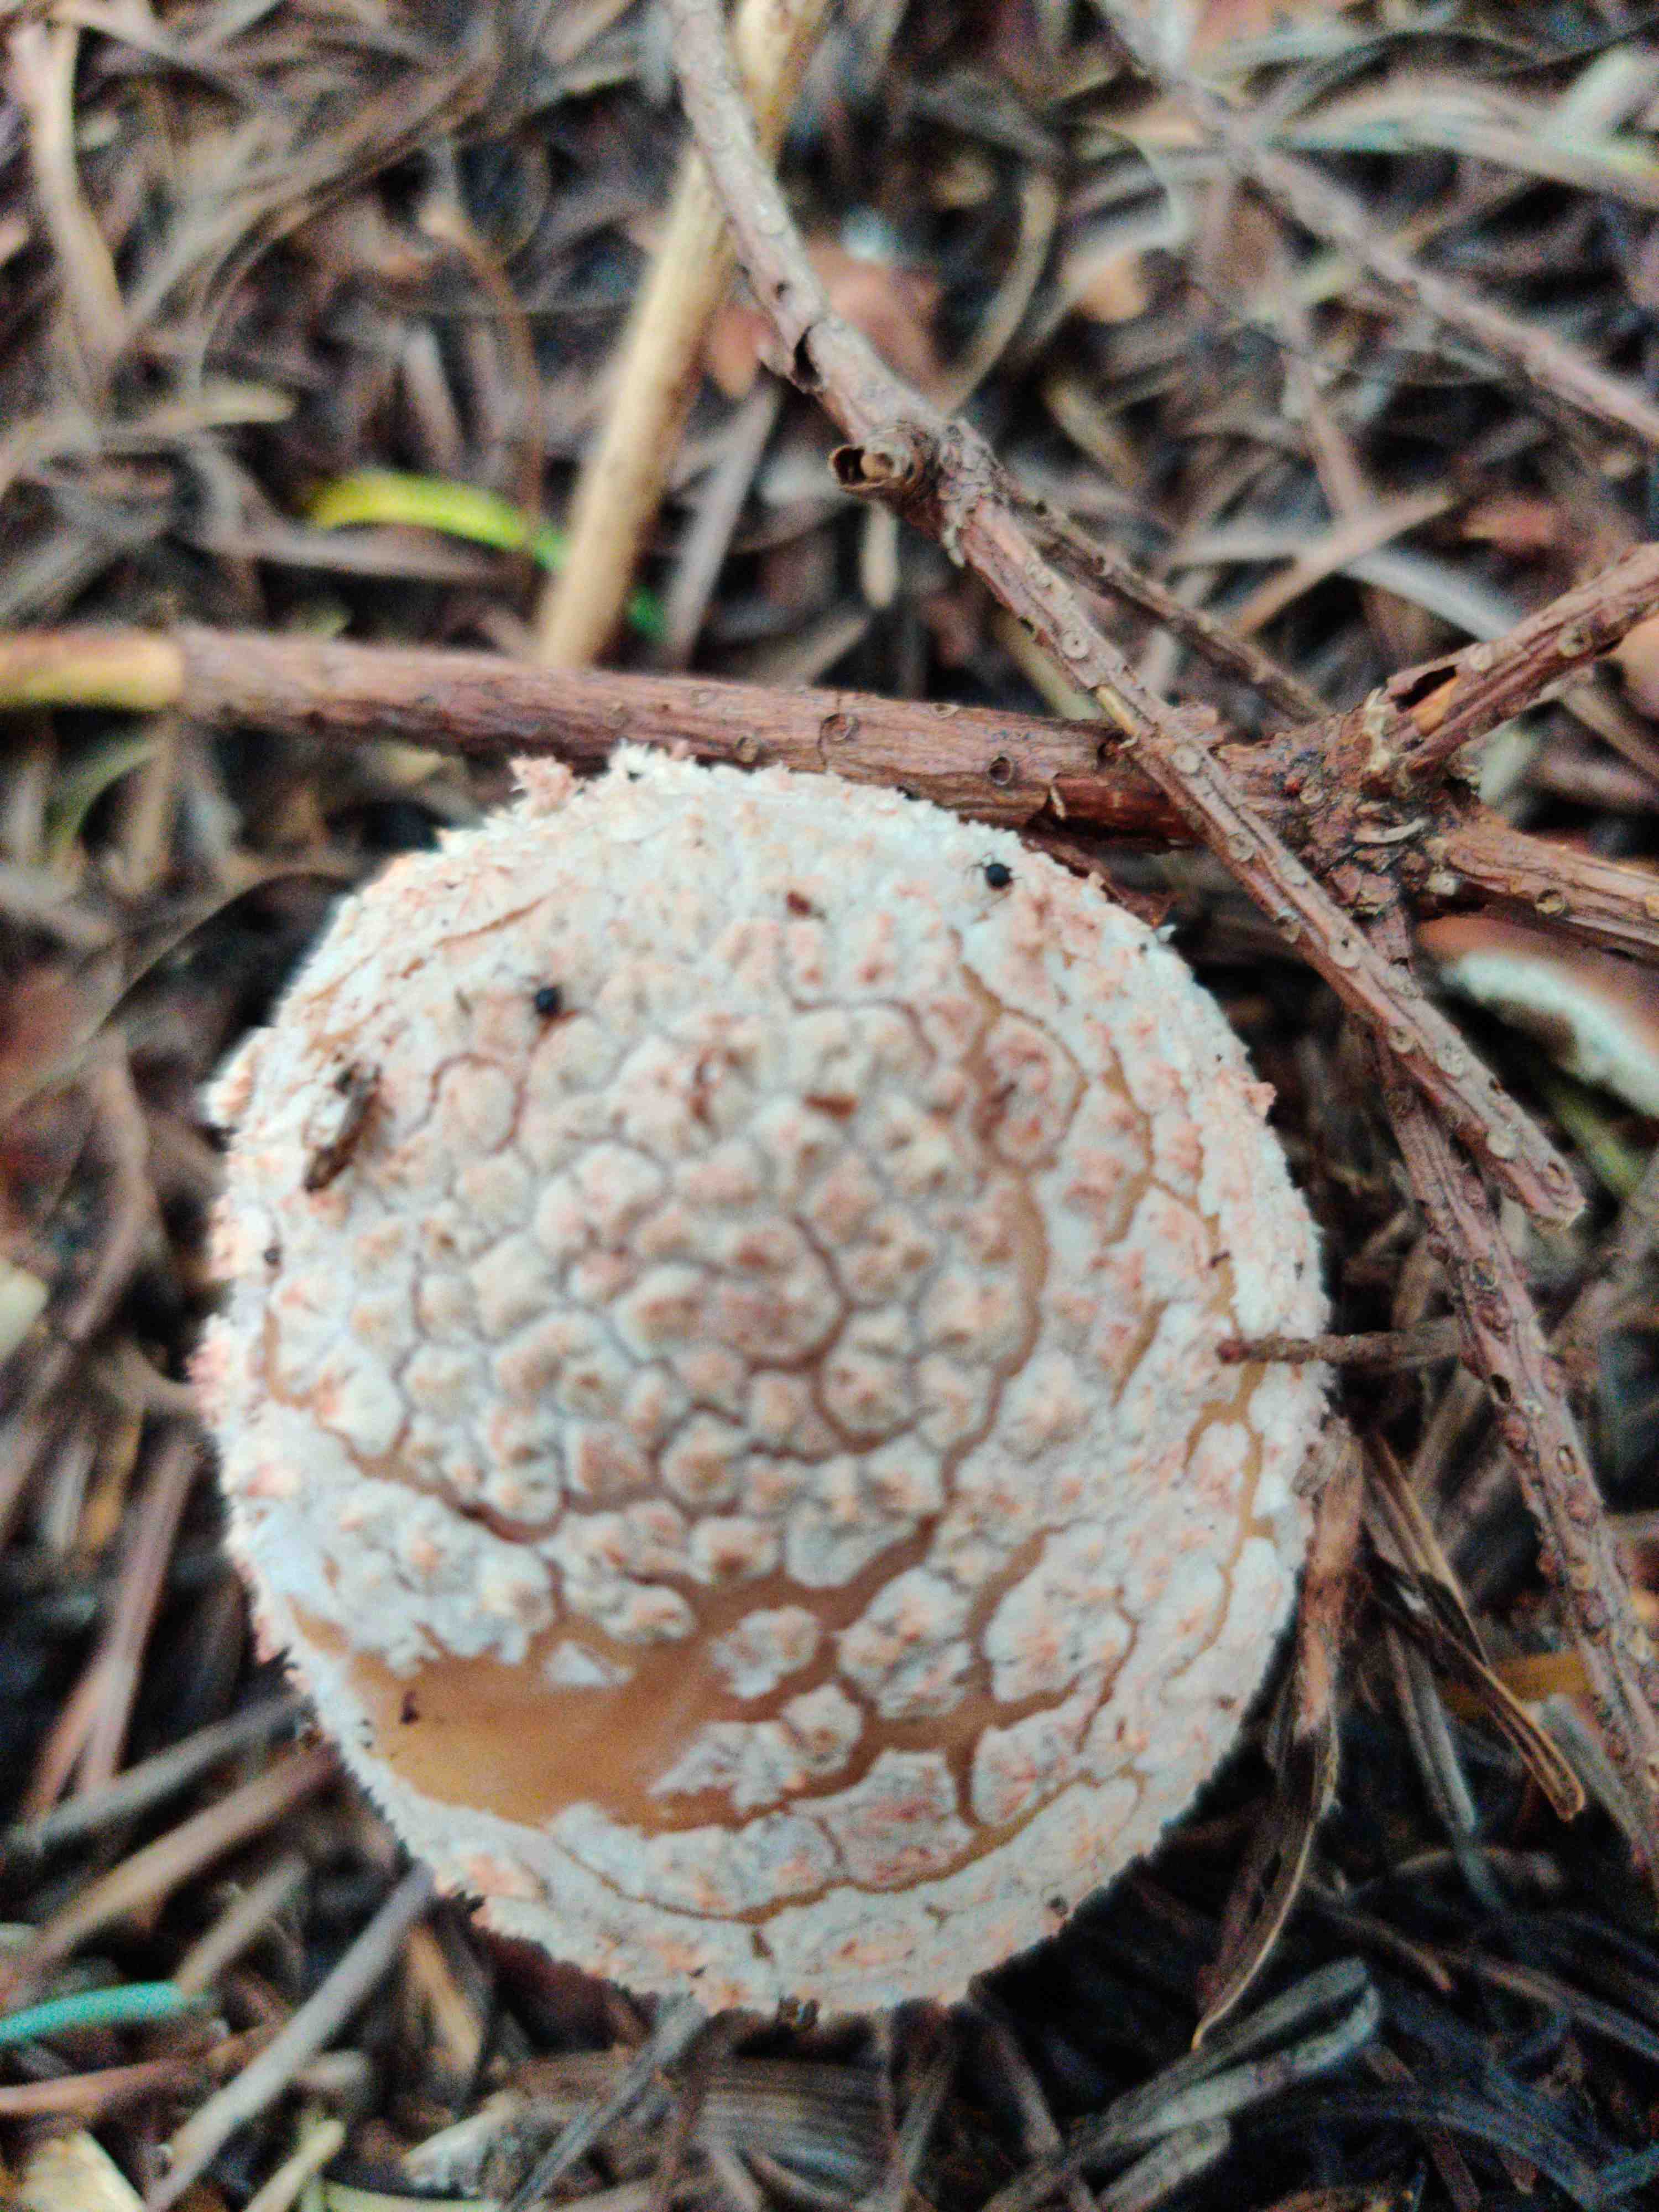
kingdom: Fungi
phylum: Basidiomycota
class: Agaricomycetes
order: Agaricales
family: Amanitaceae
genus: Amanita
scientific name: Amanita rubescens
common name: rødmende fluesvamp
